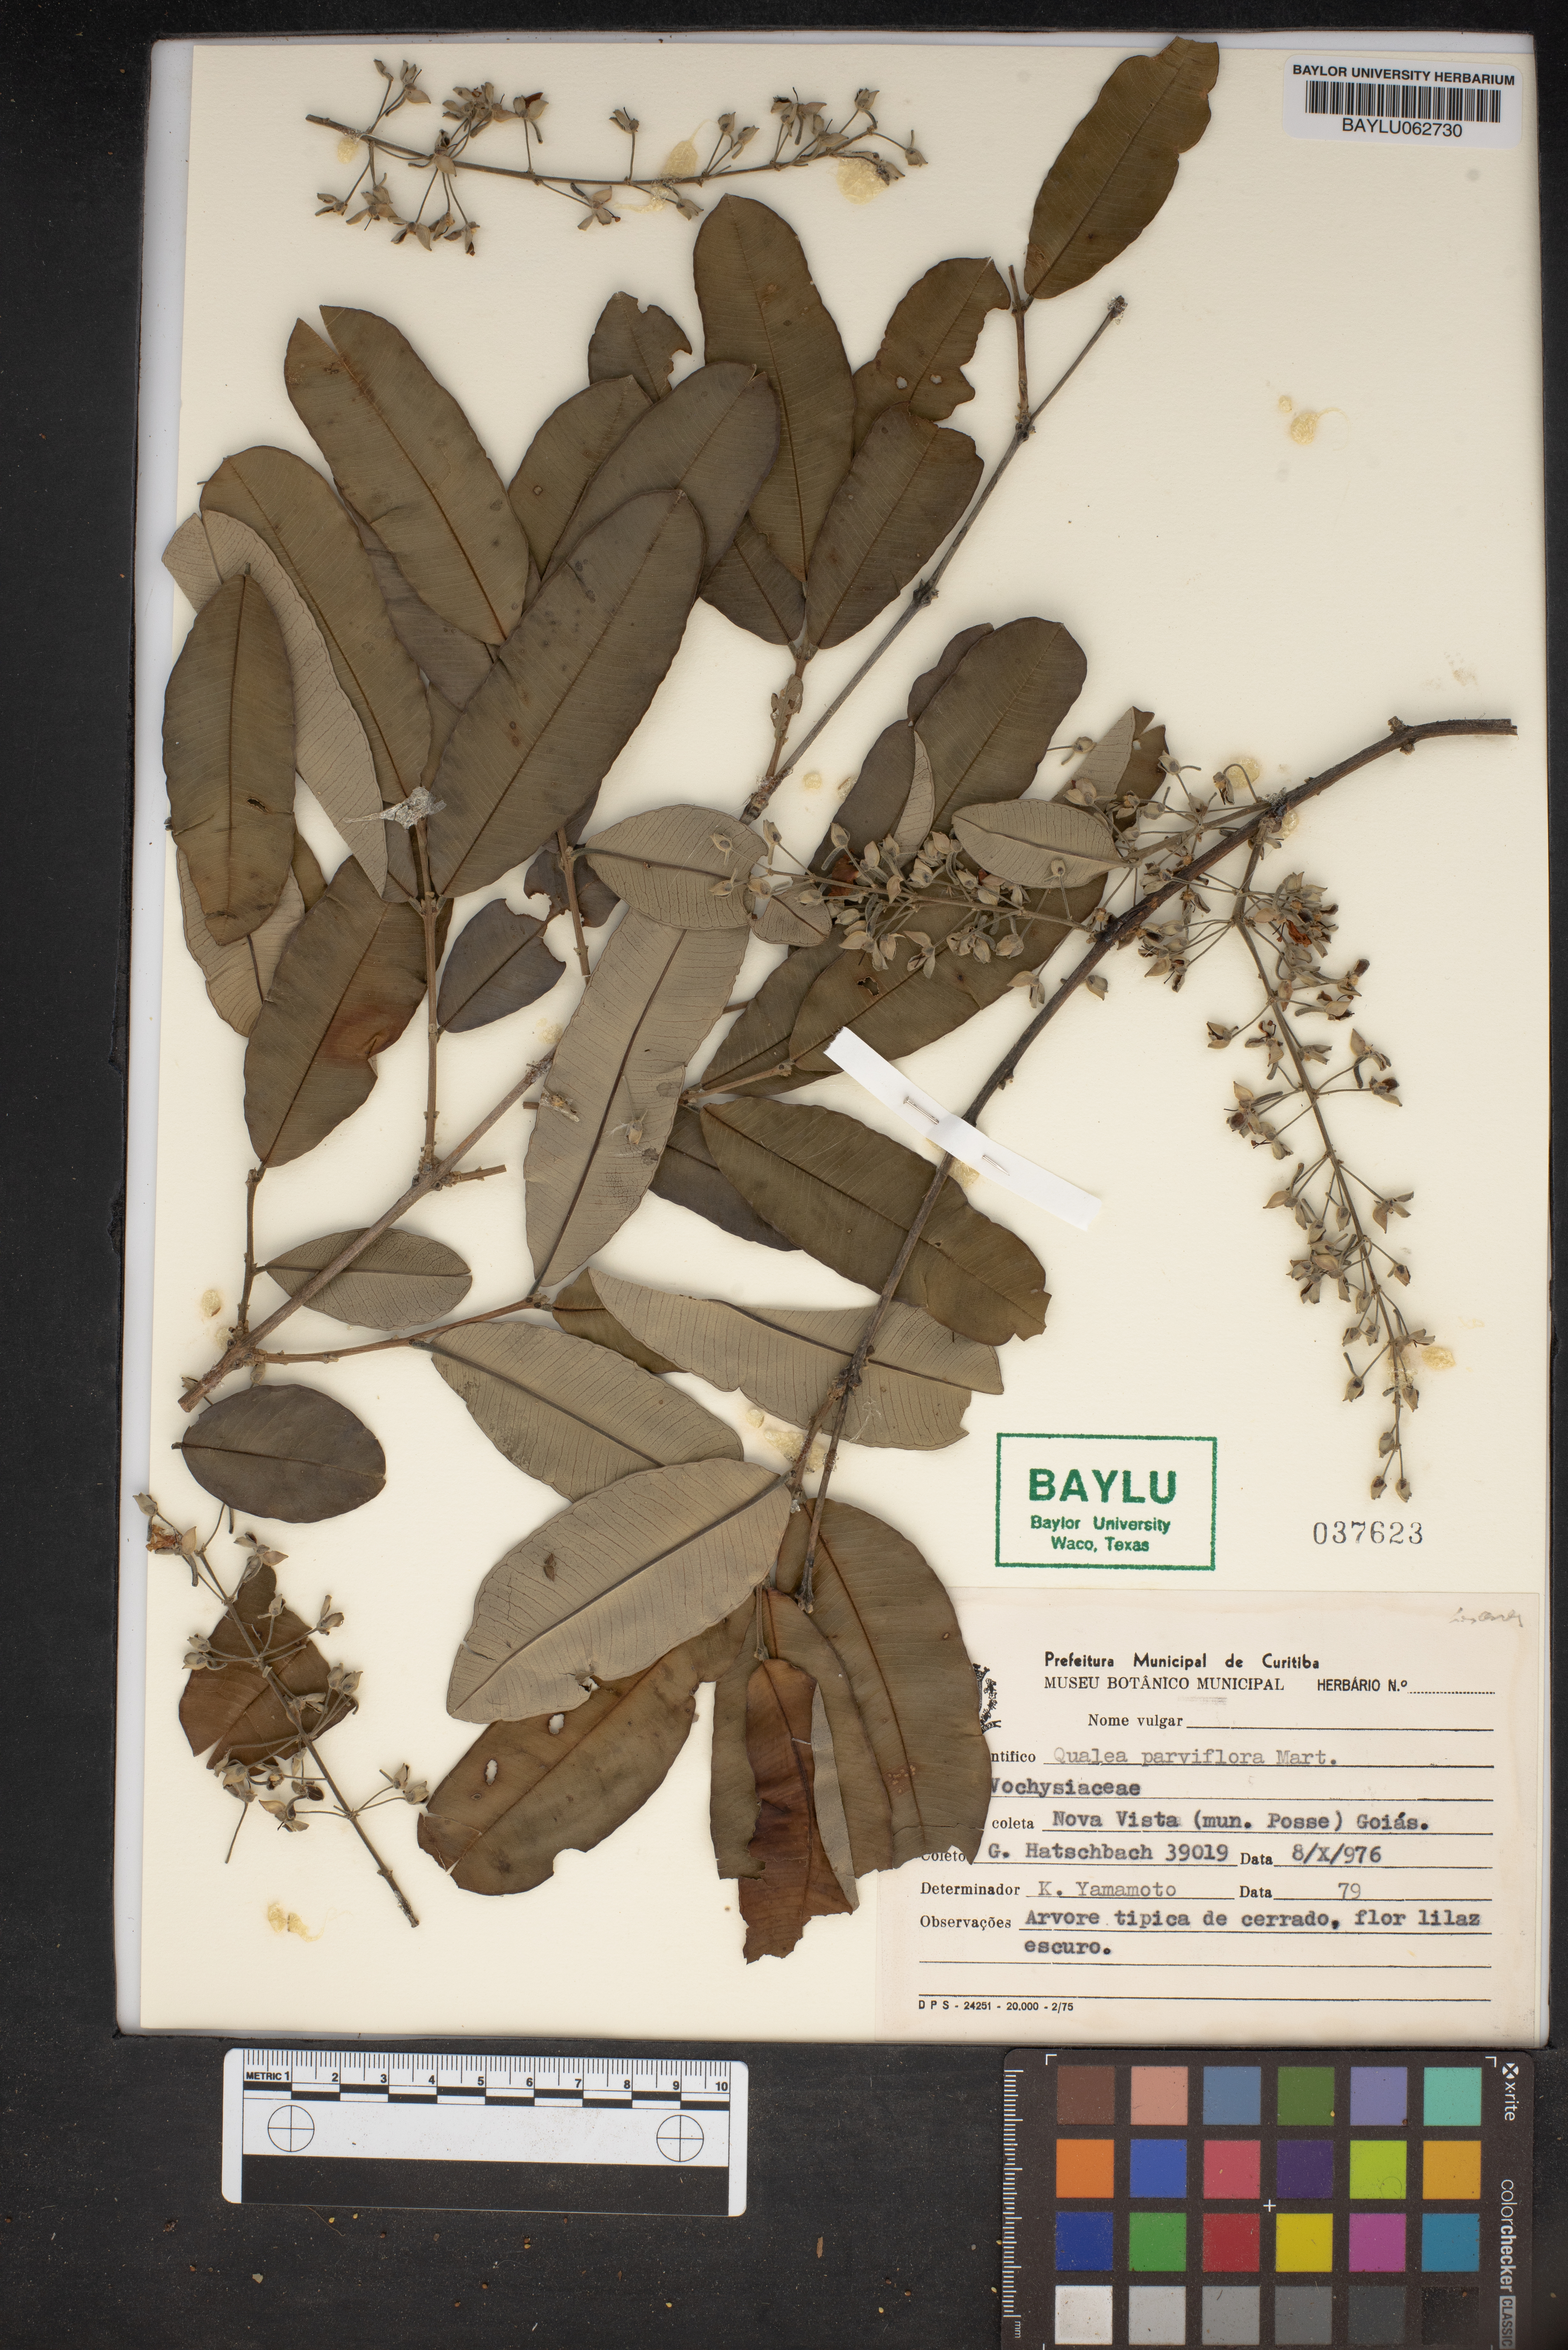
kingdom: Plantae
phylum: Tracheophyta
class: Magnoliopsida
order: Myrtales
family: Vochysiaceae
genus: Qualea
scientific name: Qualea parviflora
